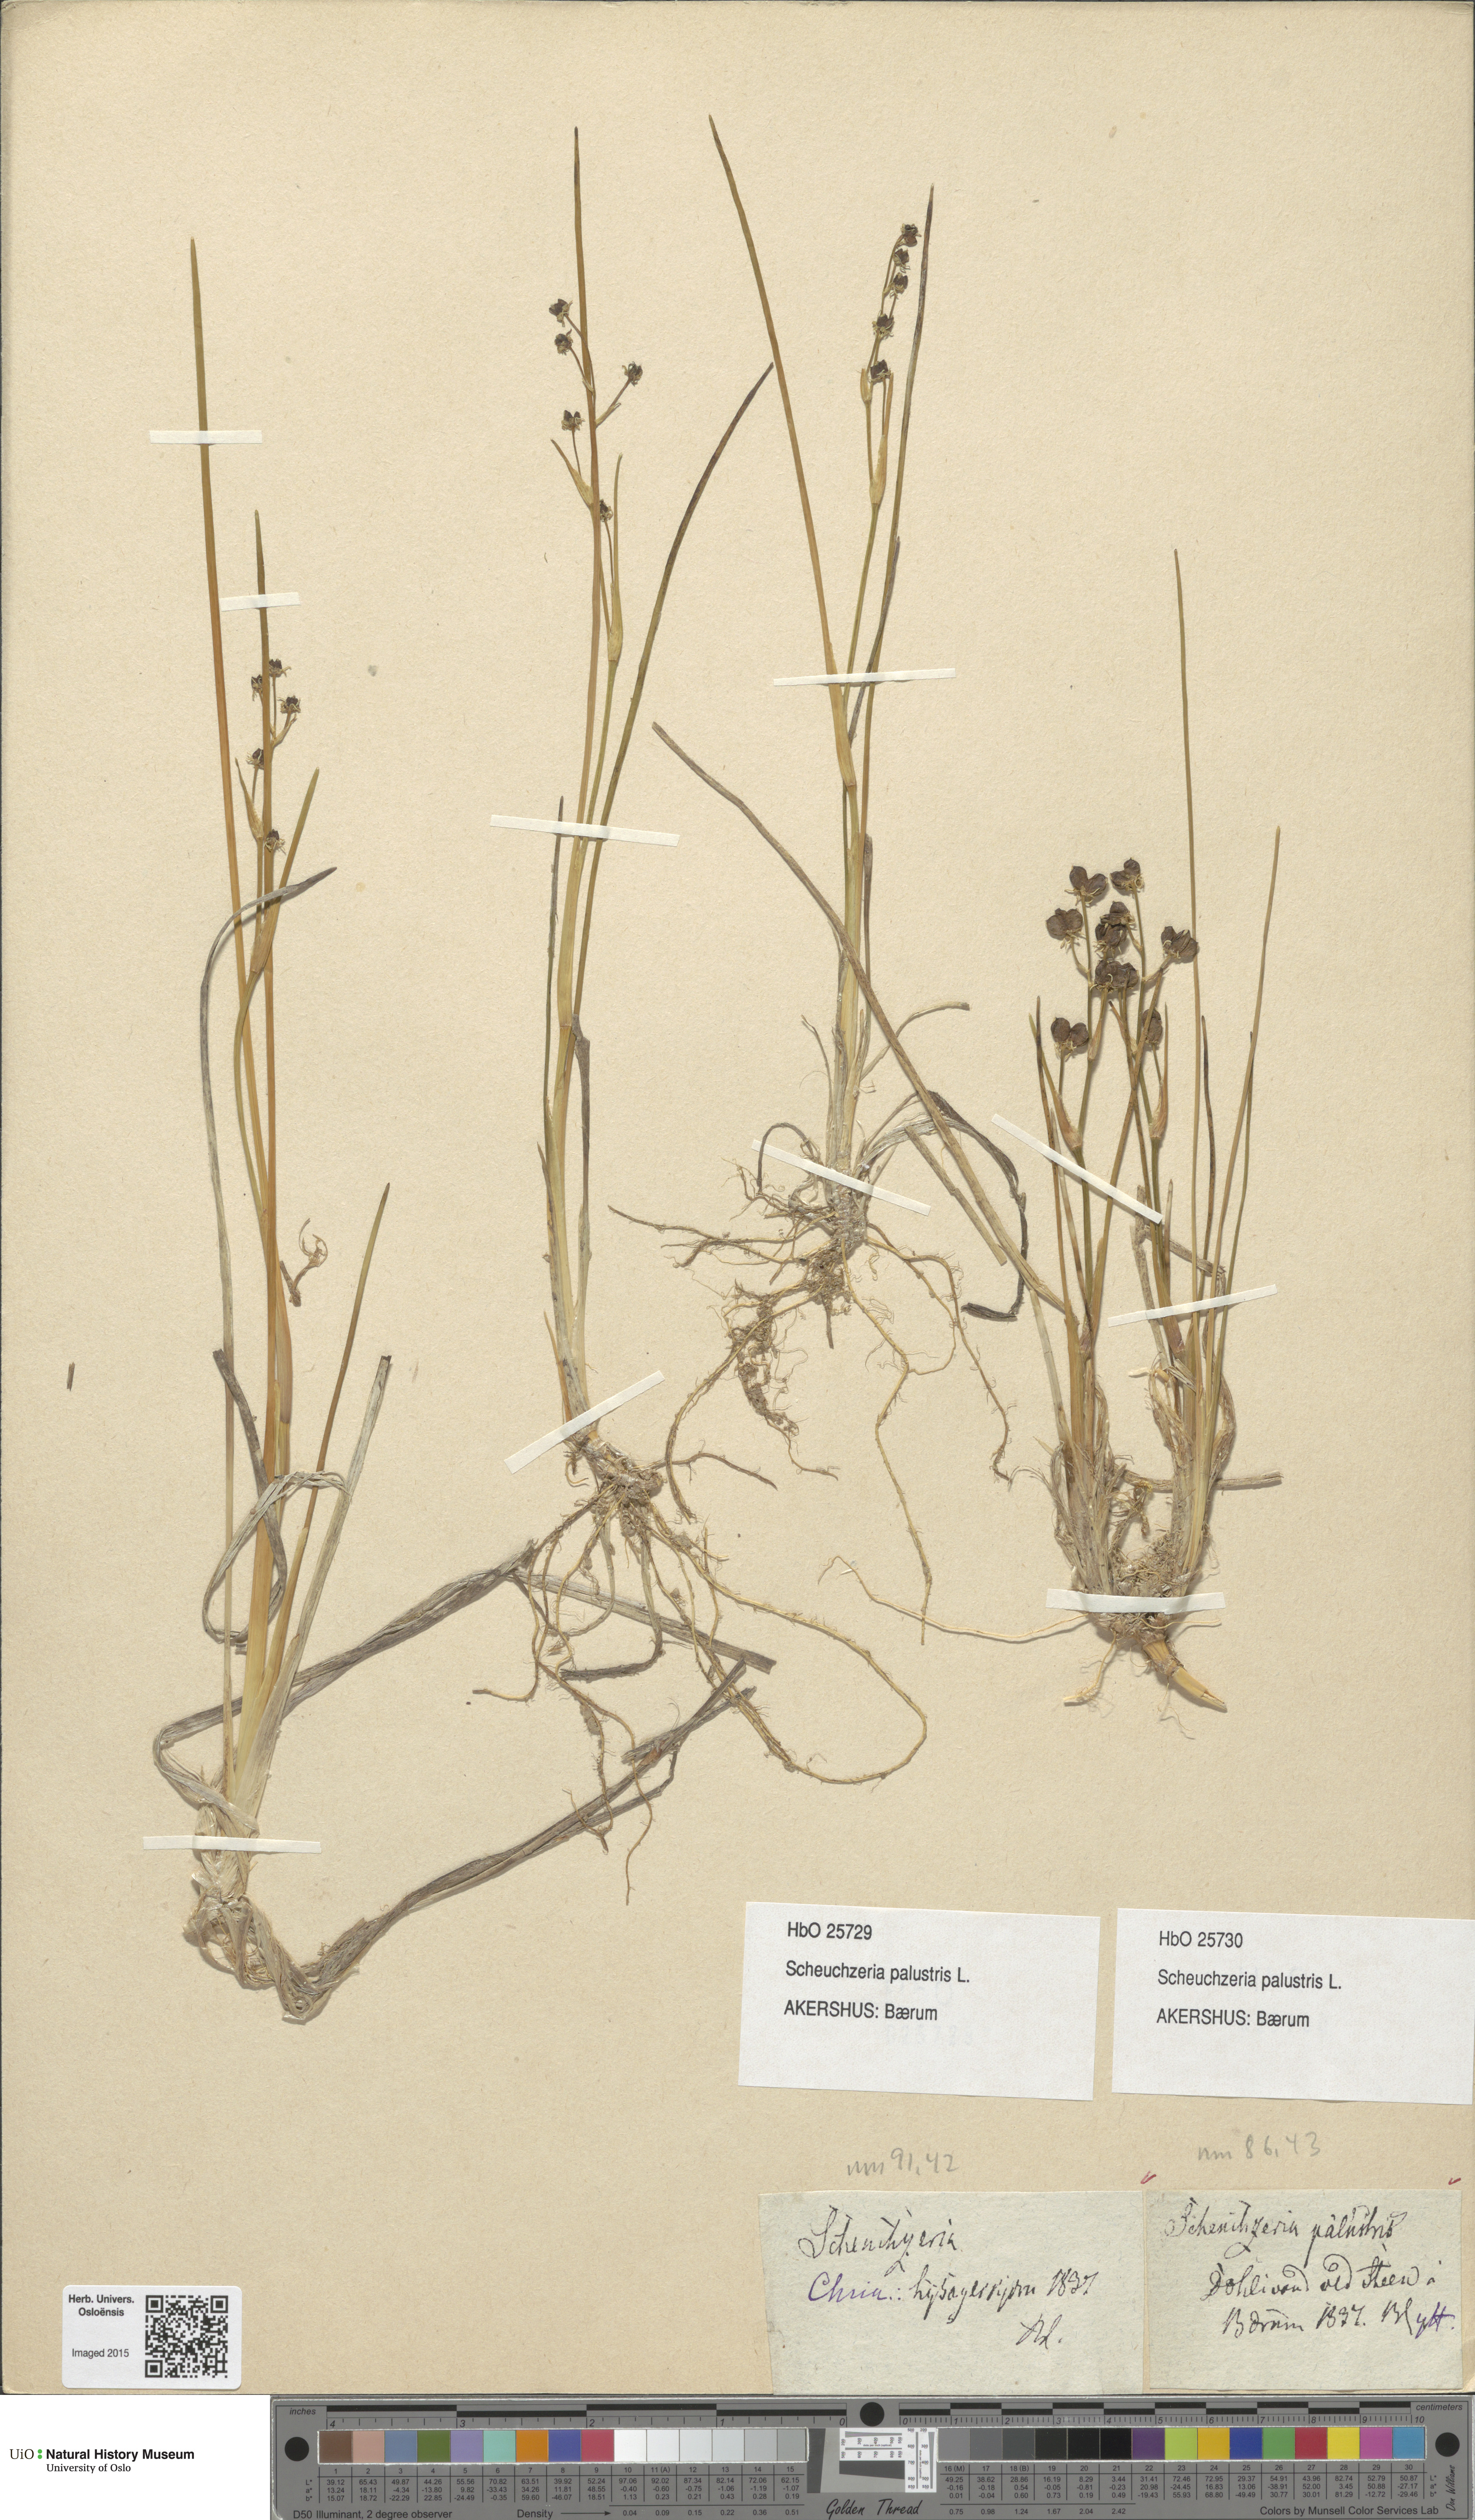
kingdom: Plantae
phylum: Tracheophyta
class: Liliopsida
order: Alismatales
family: Scheuchzeriaceae
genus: Scheuchzeria
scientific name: Scheuchzeria palustris
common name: Rannoch-rush
